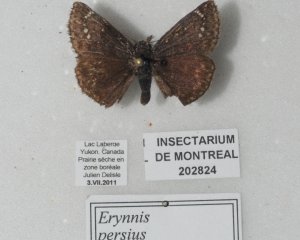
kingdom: Animalia
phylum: Arthropoda
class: Insecta
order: Lepidoptera
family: Hesperiidae
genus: Gesta
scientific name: Gesta
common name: Persius Duskywing
